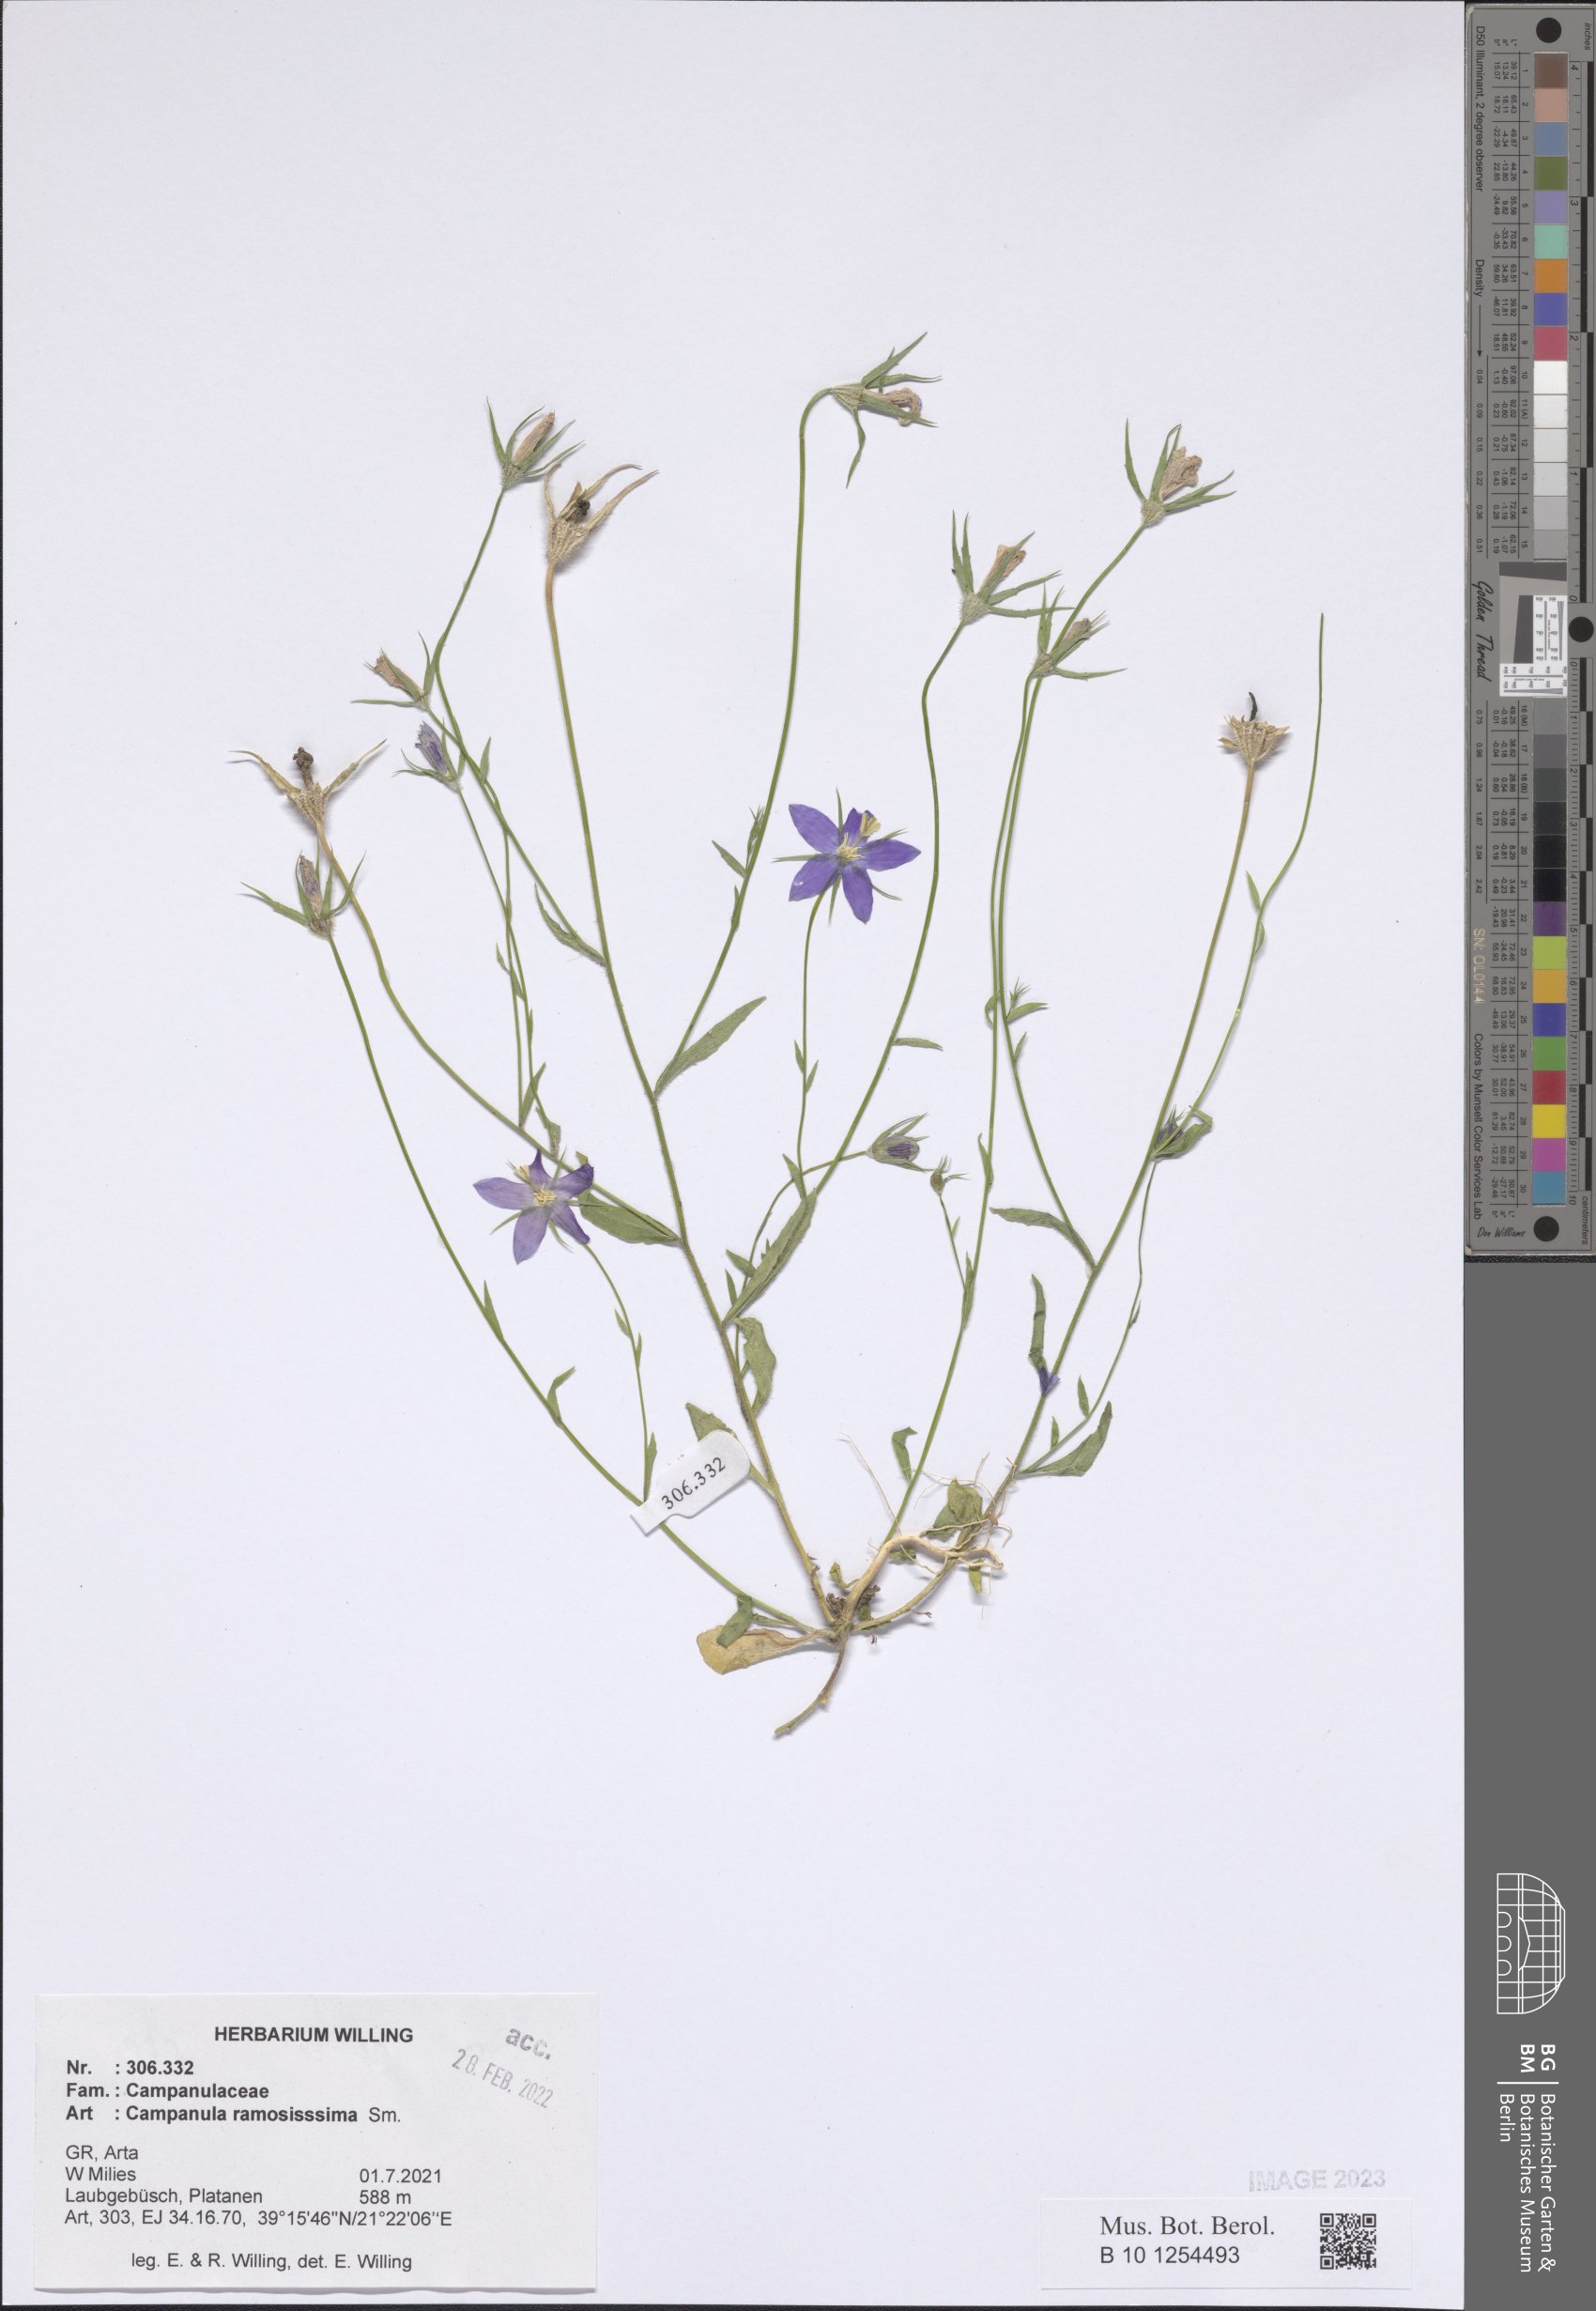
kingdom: Plantae
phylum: Tracheophyta
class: Magnoliopsida
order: Asterales
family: Campanulaceae
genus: Campanula
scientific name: Campanula ramosissima
